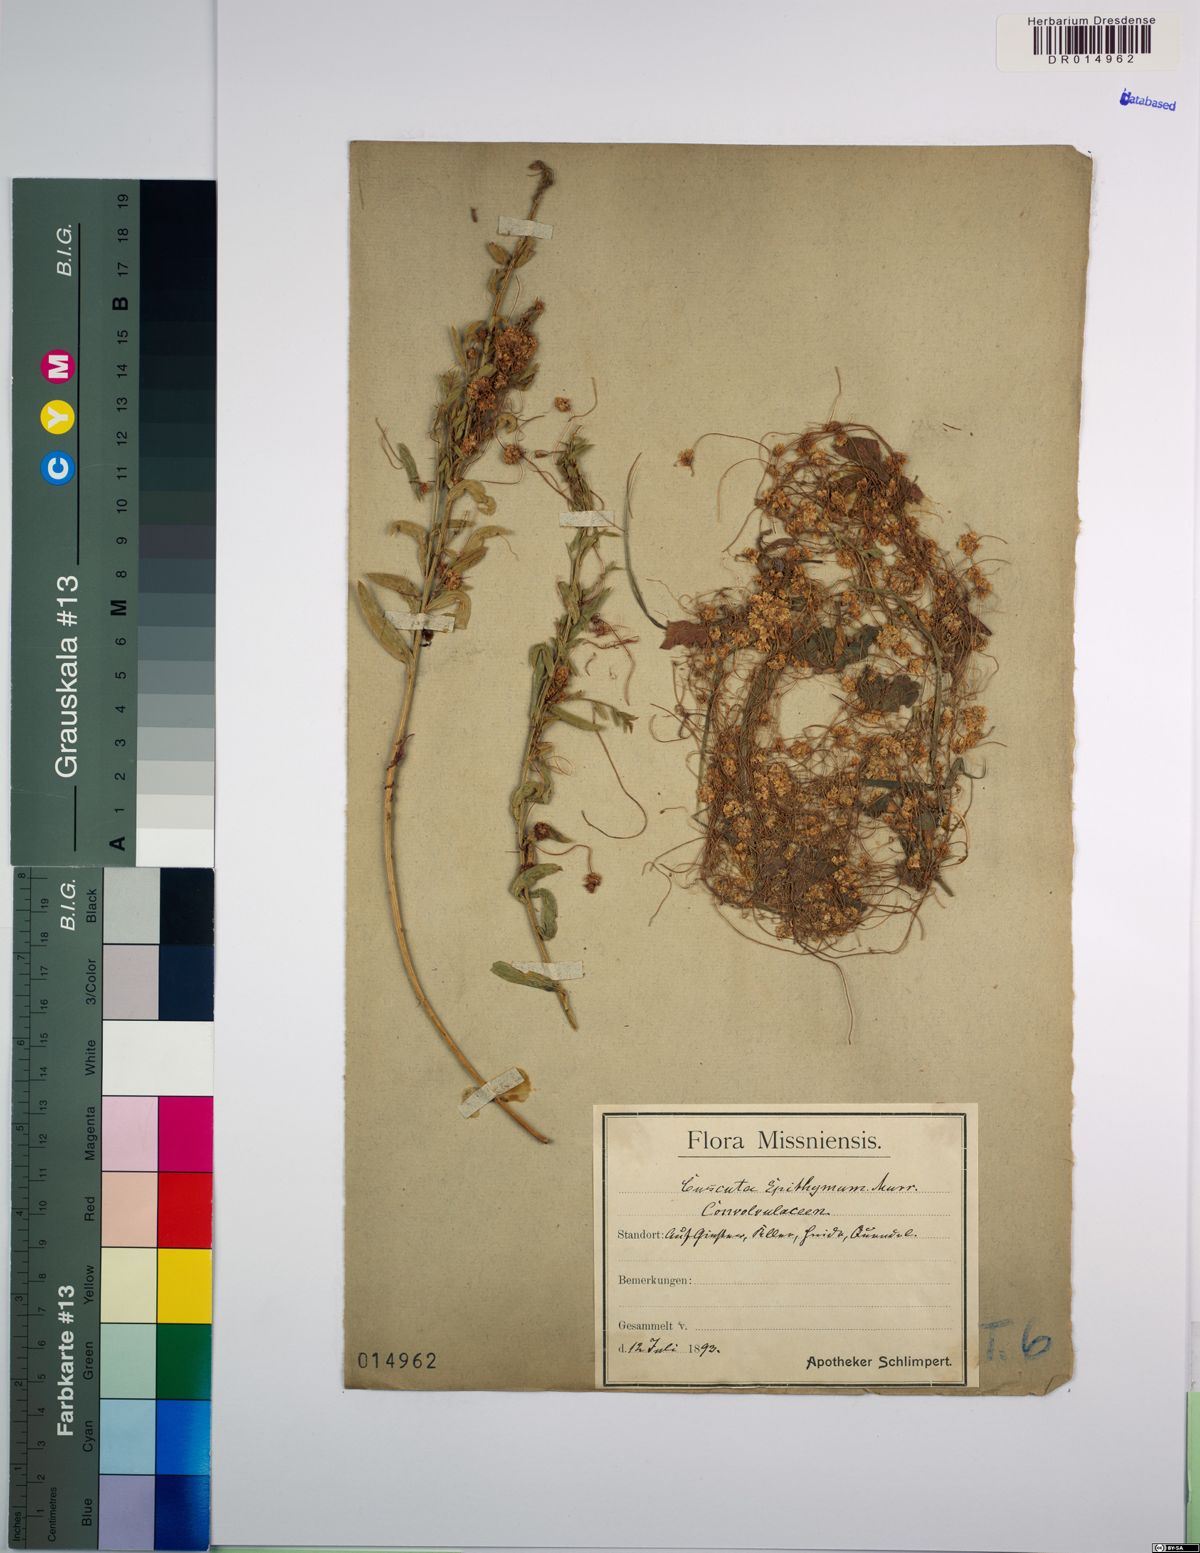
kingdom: Plantae
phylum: Tracheophyta
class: Magnoliopsida
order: Solanales
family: Convolvulaceae
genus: Cuscuta
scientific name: Cuscuta epithymum
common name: Clover dodder
